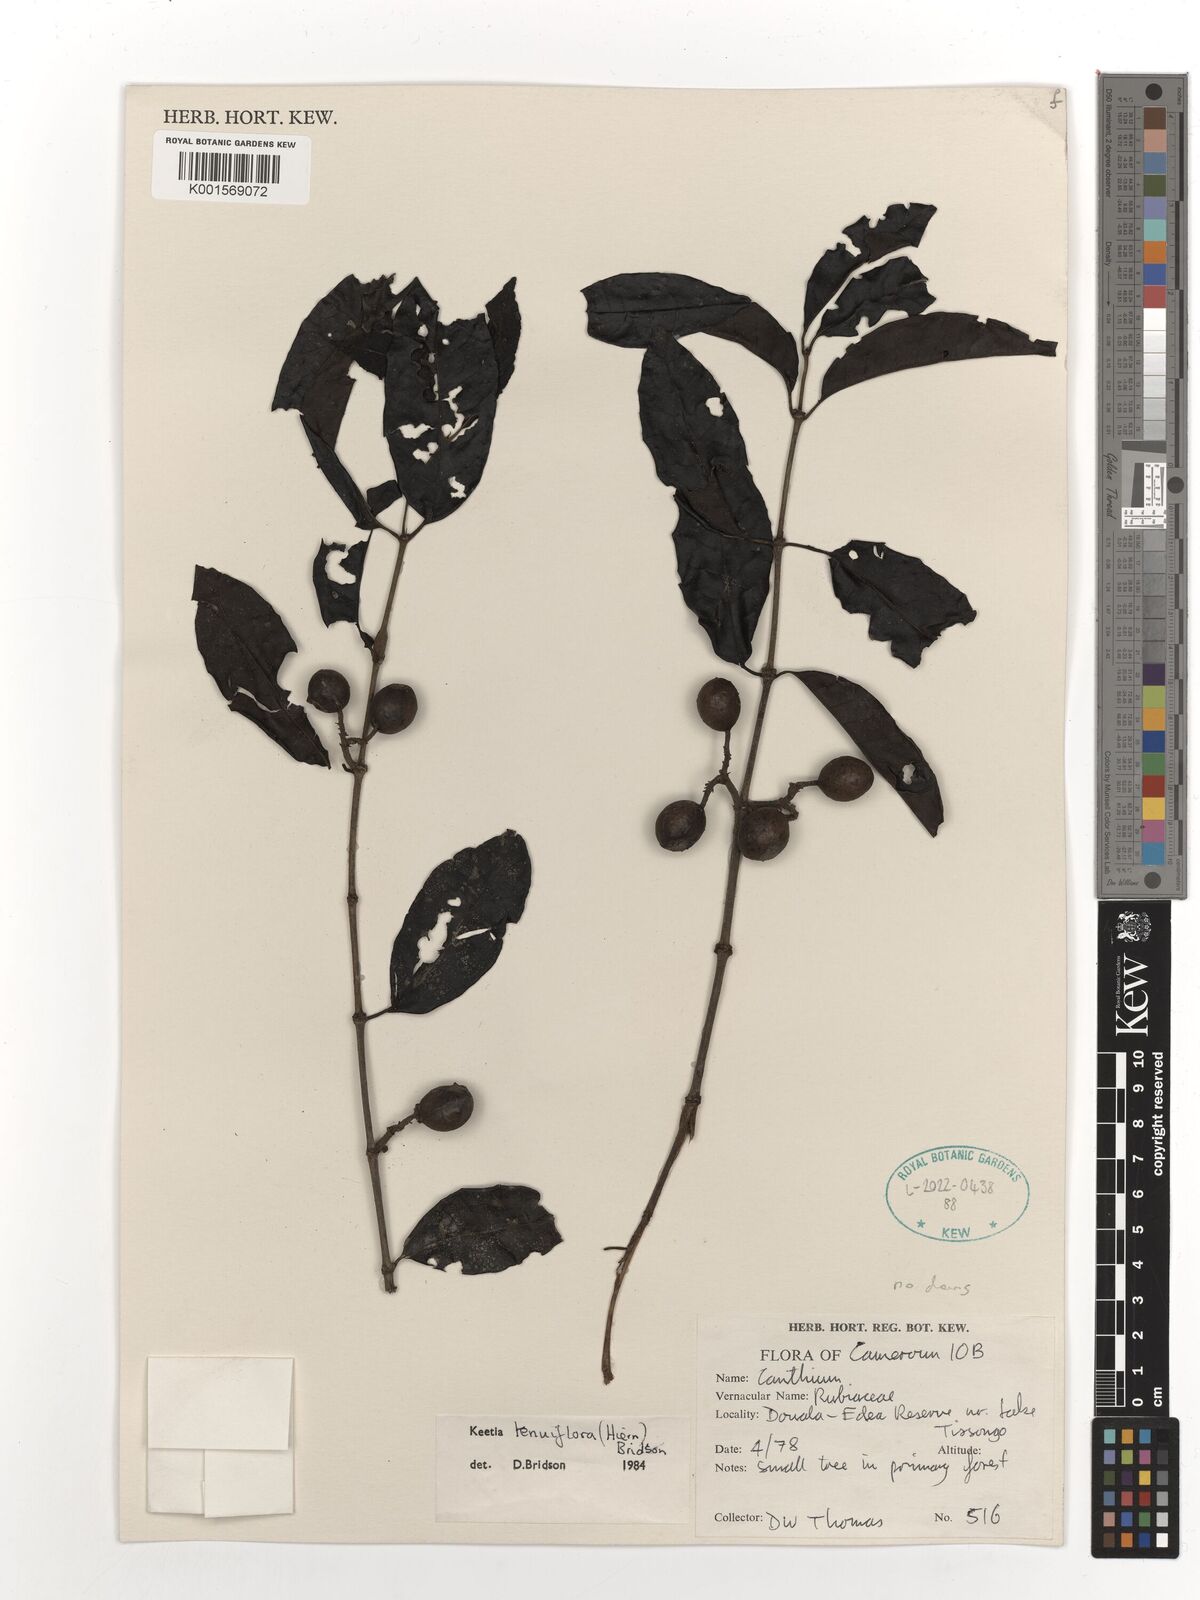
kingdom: Plantae
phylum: Tracheophyta
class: Magnoliopsida
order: Gentianales
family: Rubiaceae
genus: Keetia
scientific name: Keetia tenuiflora
